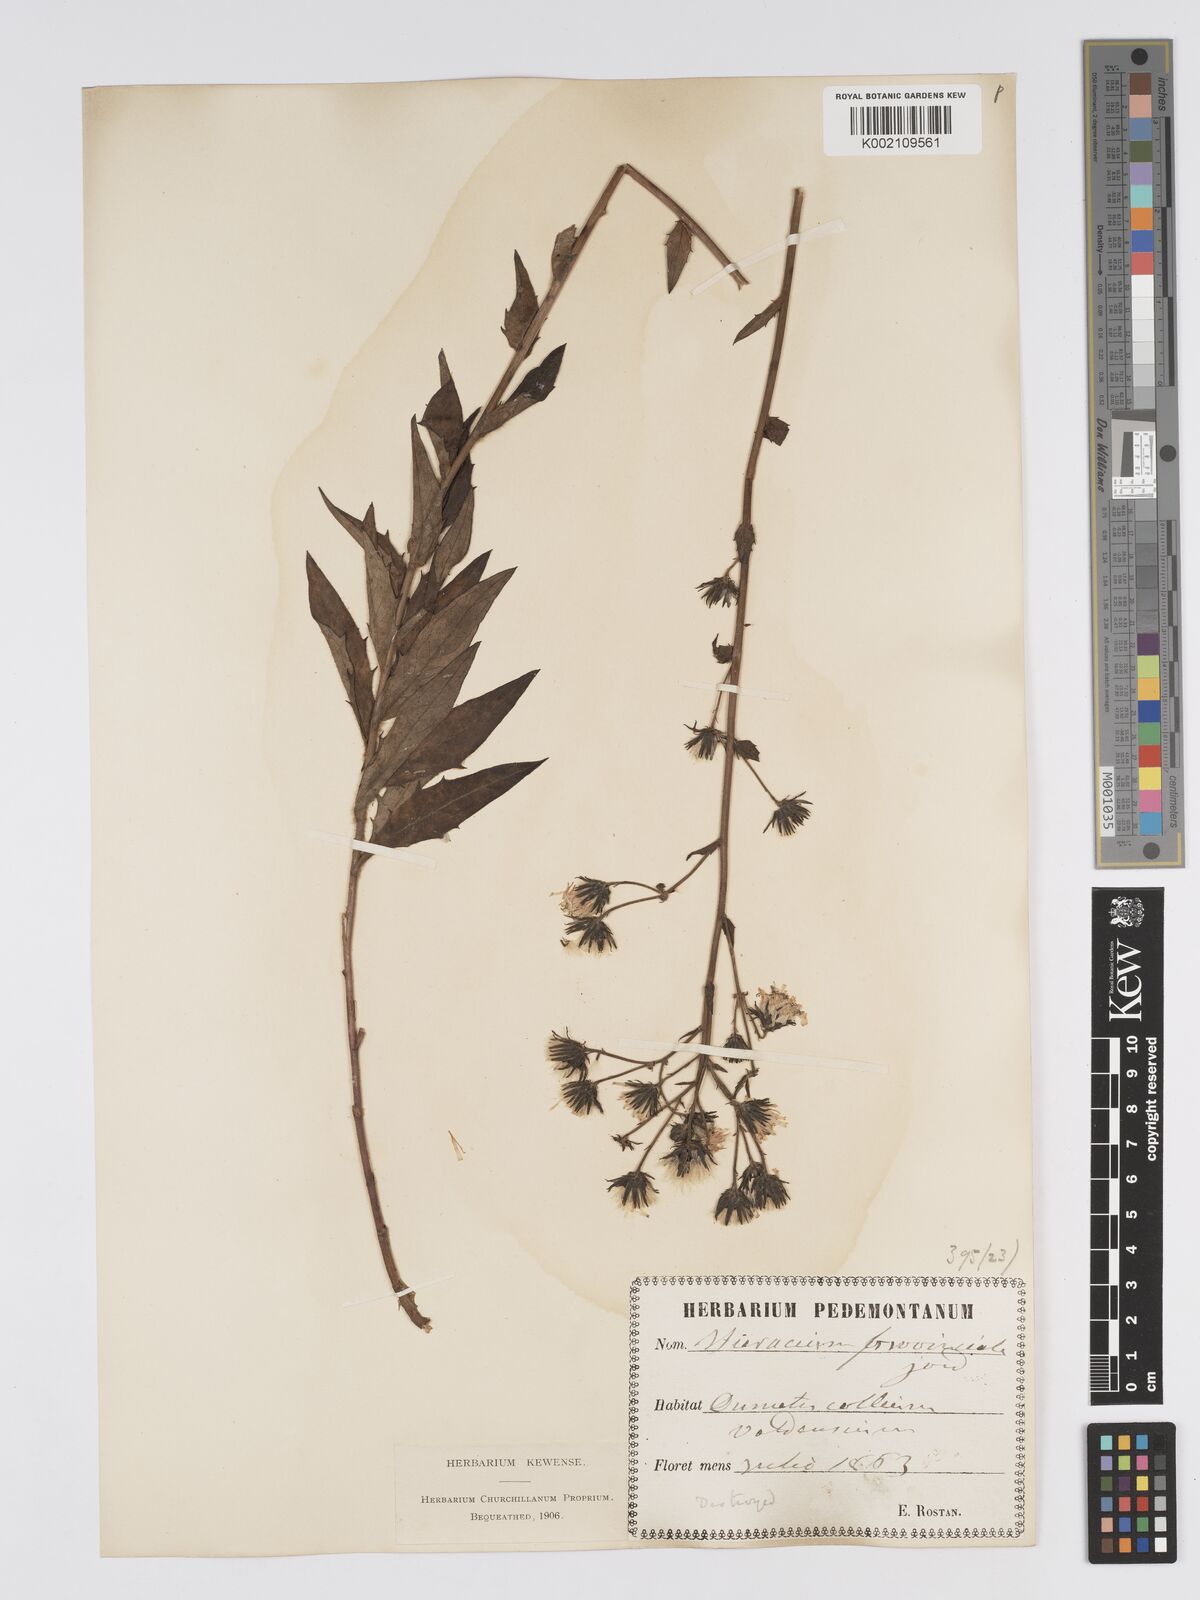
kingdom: Plantae
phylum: Tracheophyta
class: Magnoliopsida
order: Asterales
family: Asteraceae
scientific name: Asteraceae
